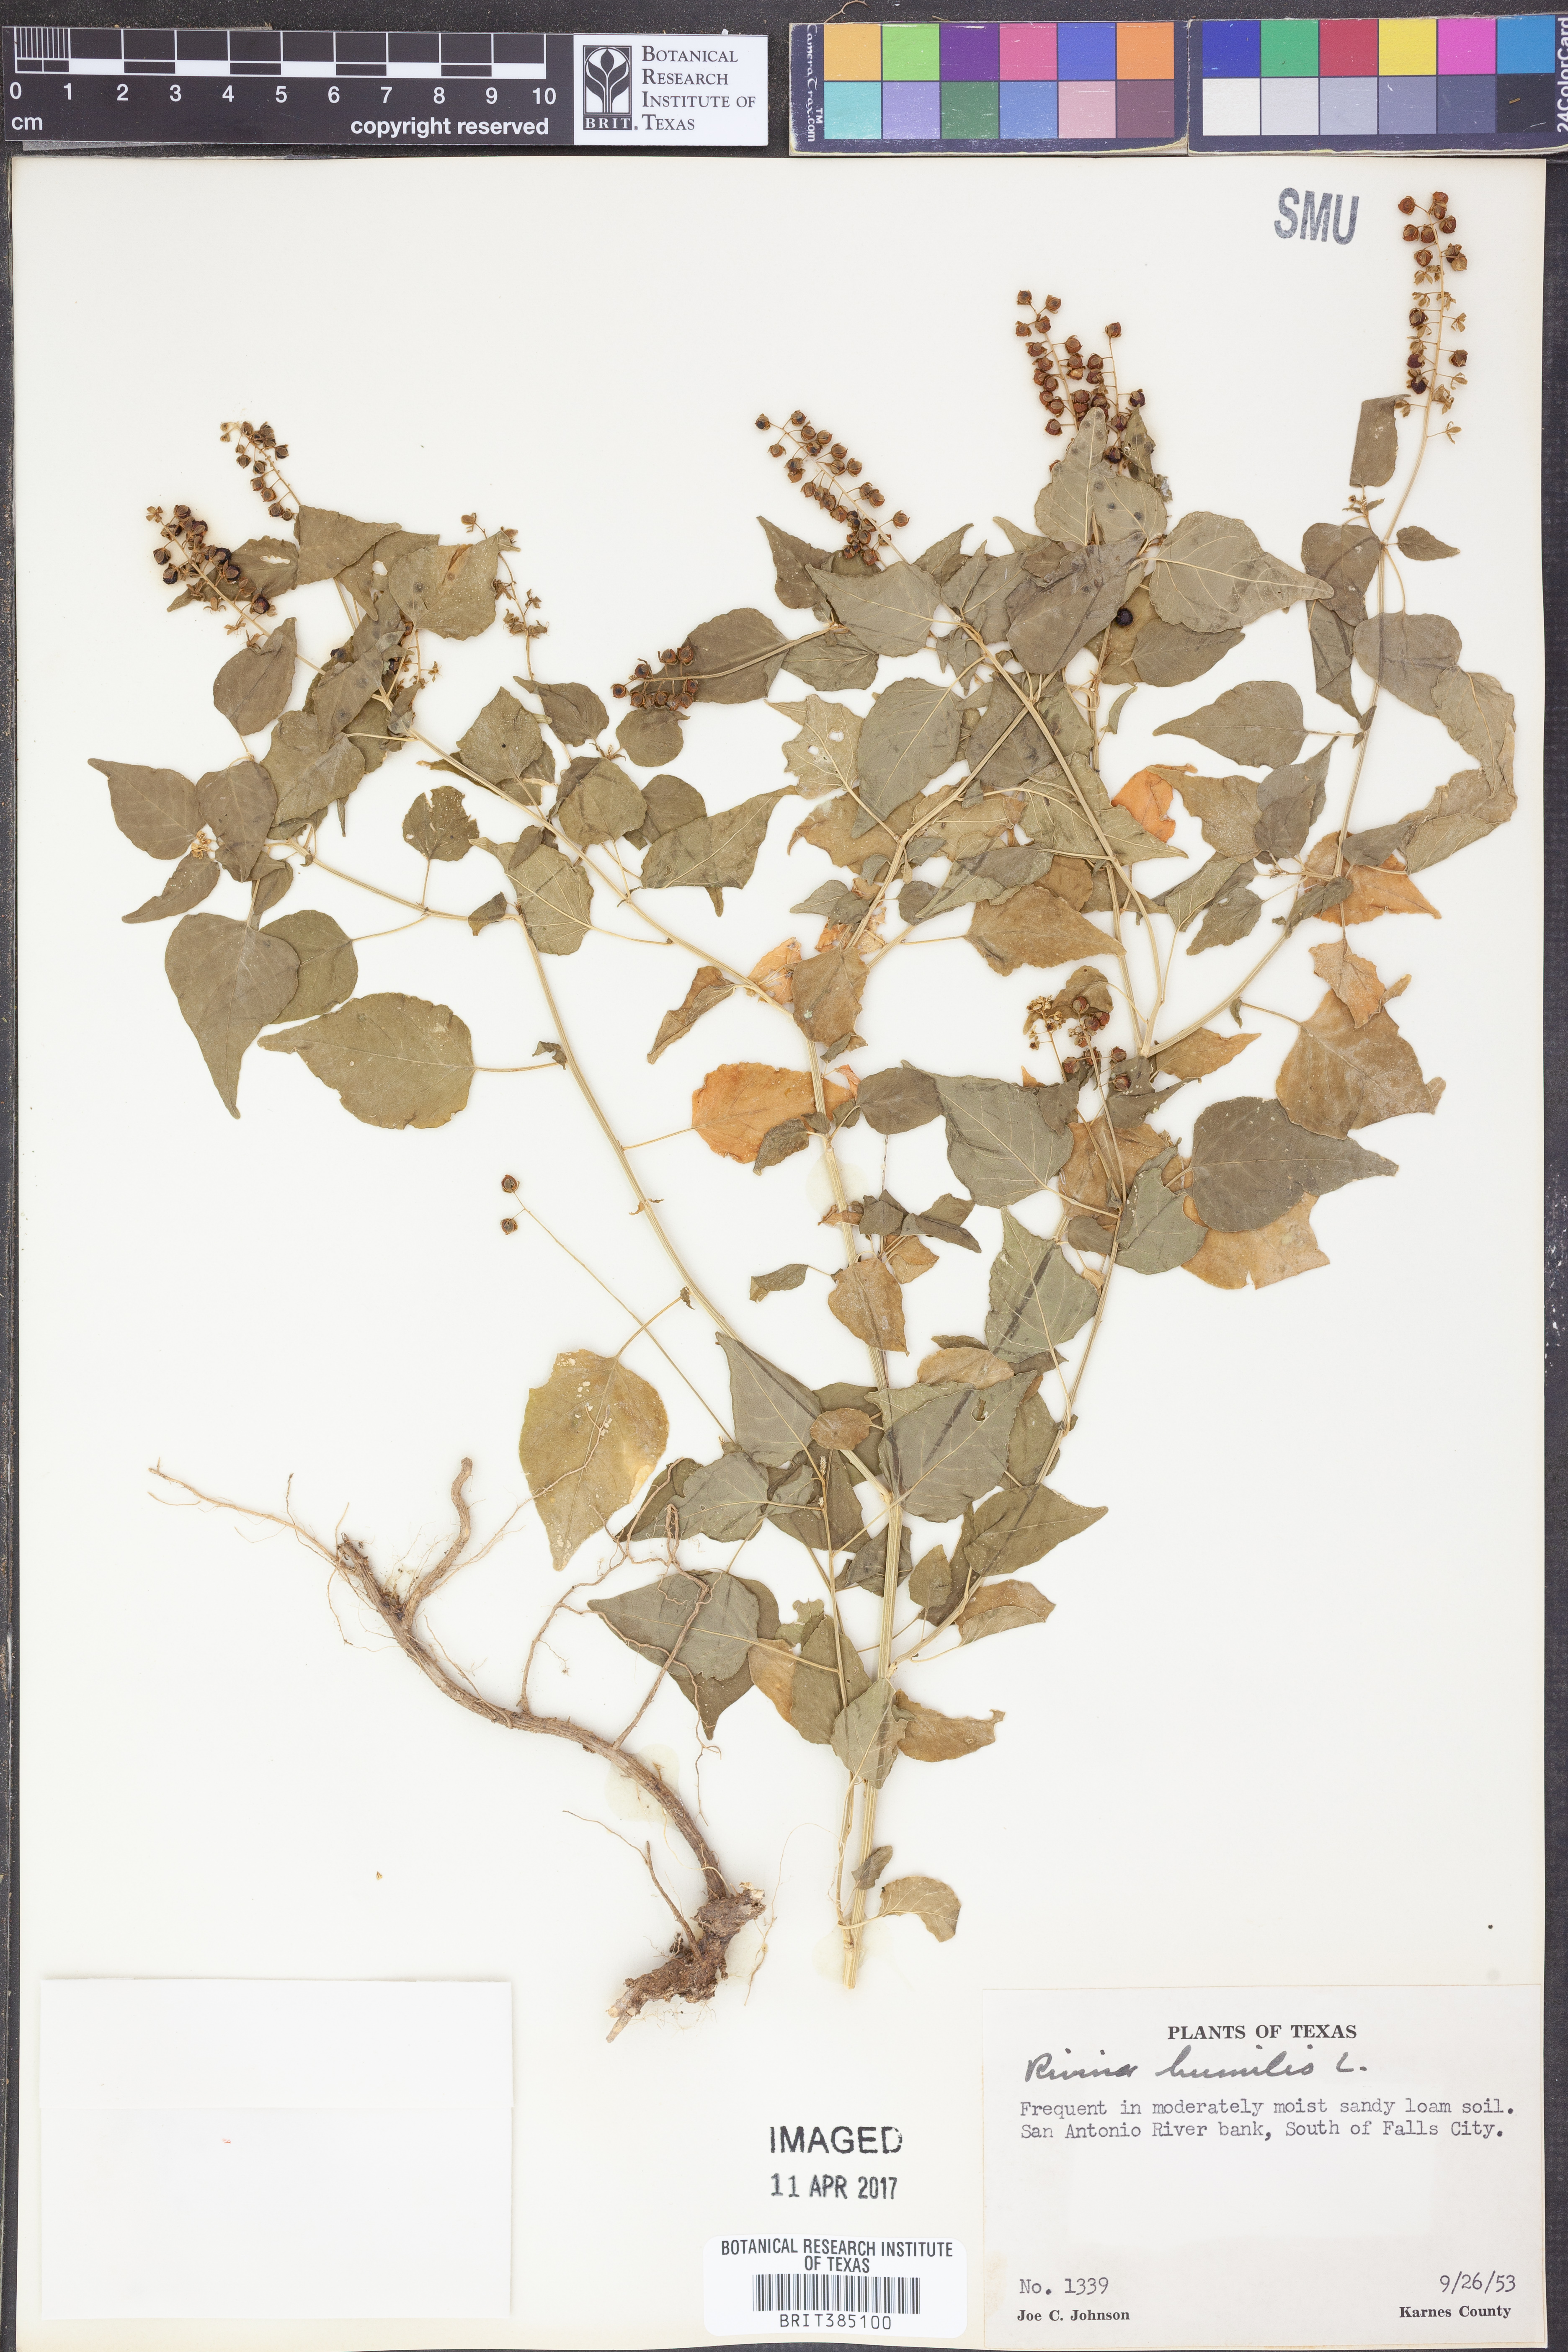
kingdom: Plantae
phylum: Tracheophyta
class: Magnoliopsida
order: Caryophyllales
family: Phytolaccaceae
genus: Rivina
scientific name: Rivina humilis
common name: Rougeplant
